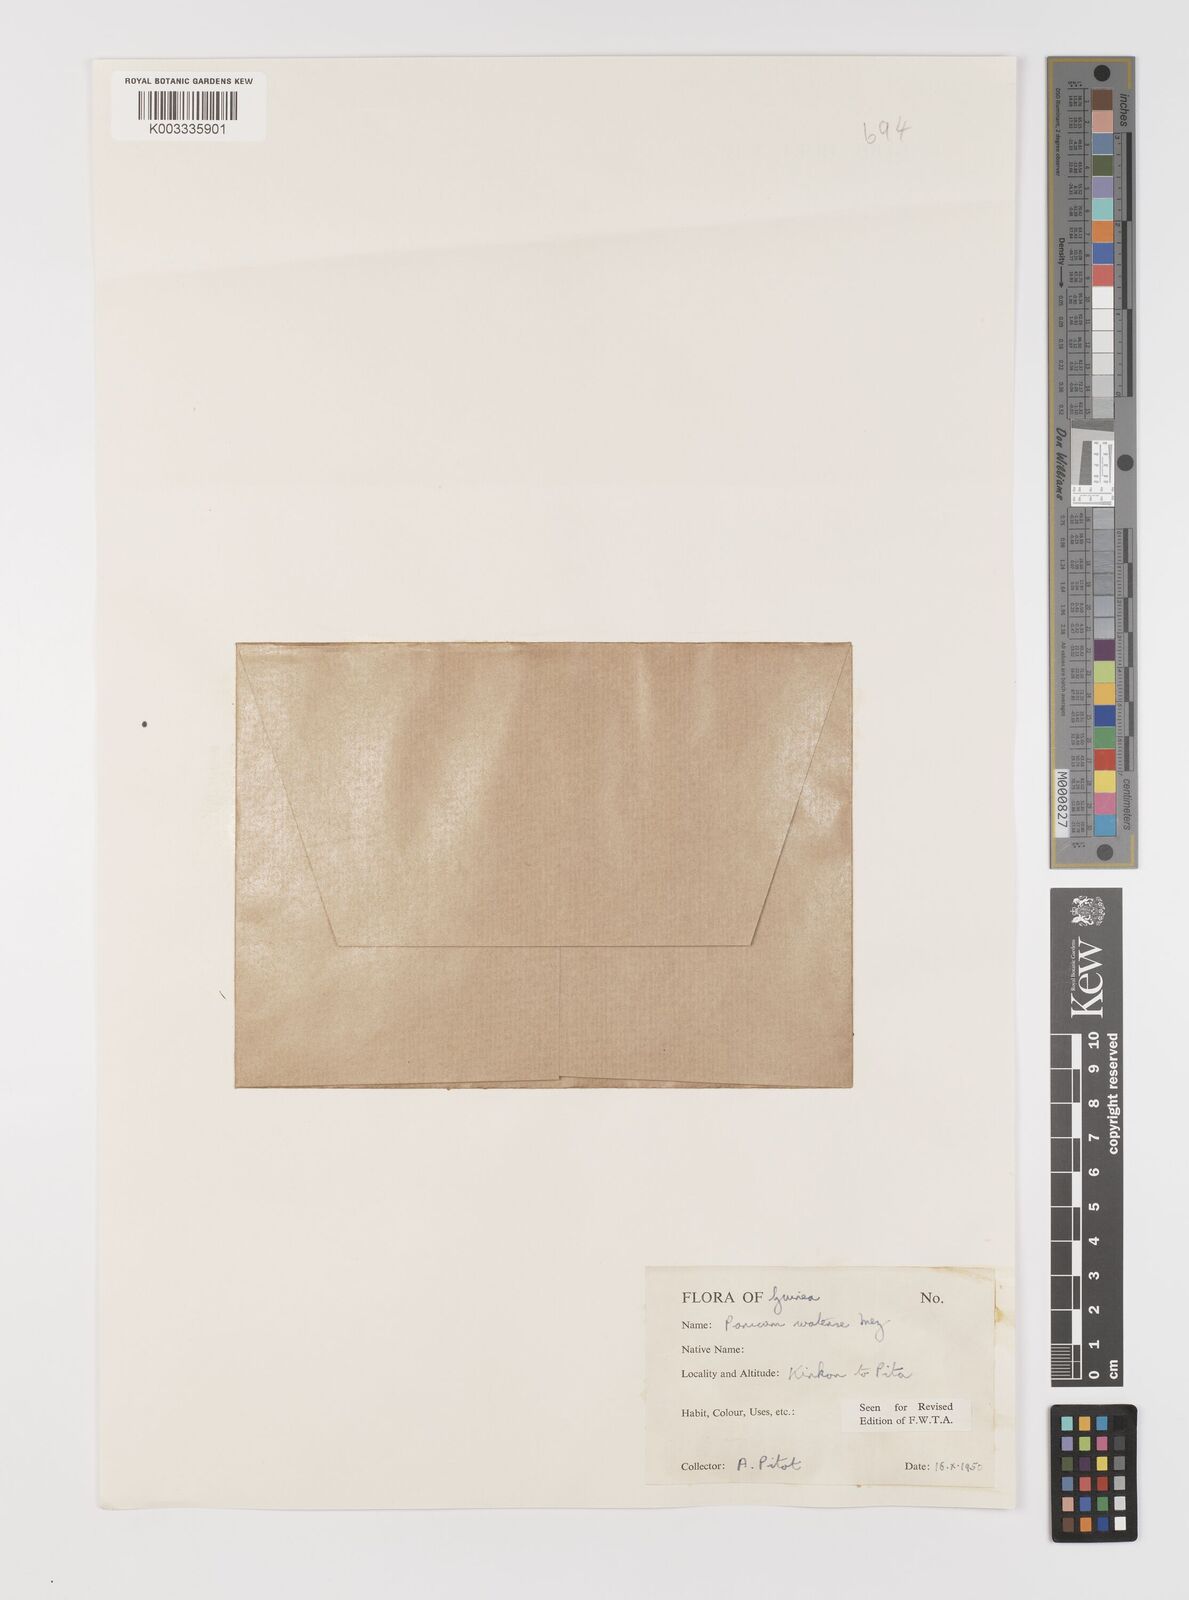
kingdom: Plantae
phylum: Tracheophyta
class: Liliopsida
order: Poales
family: Poaceae
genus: Panicum
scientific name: Panicum humile
